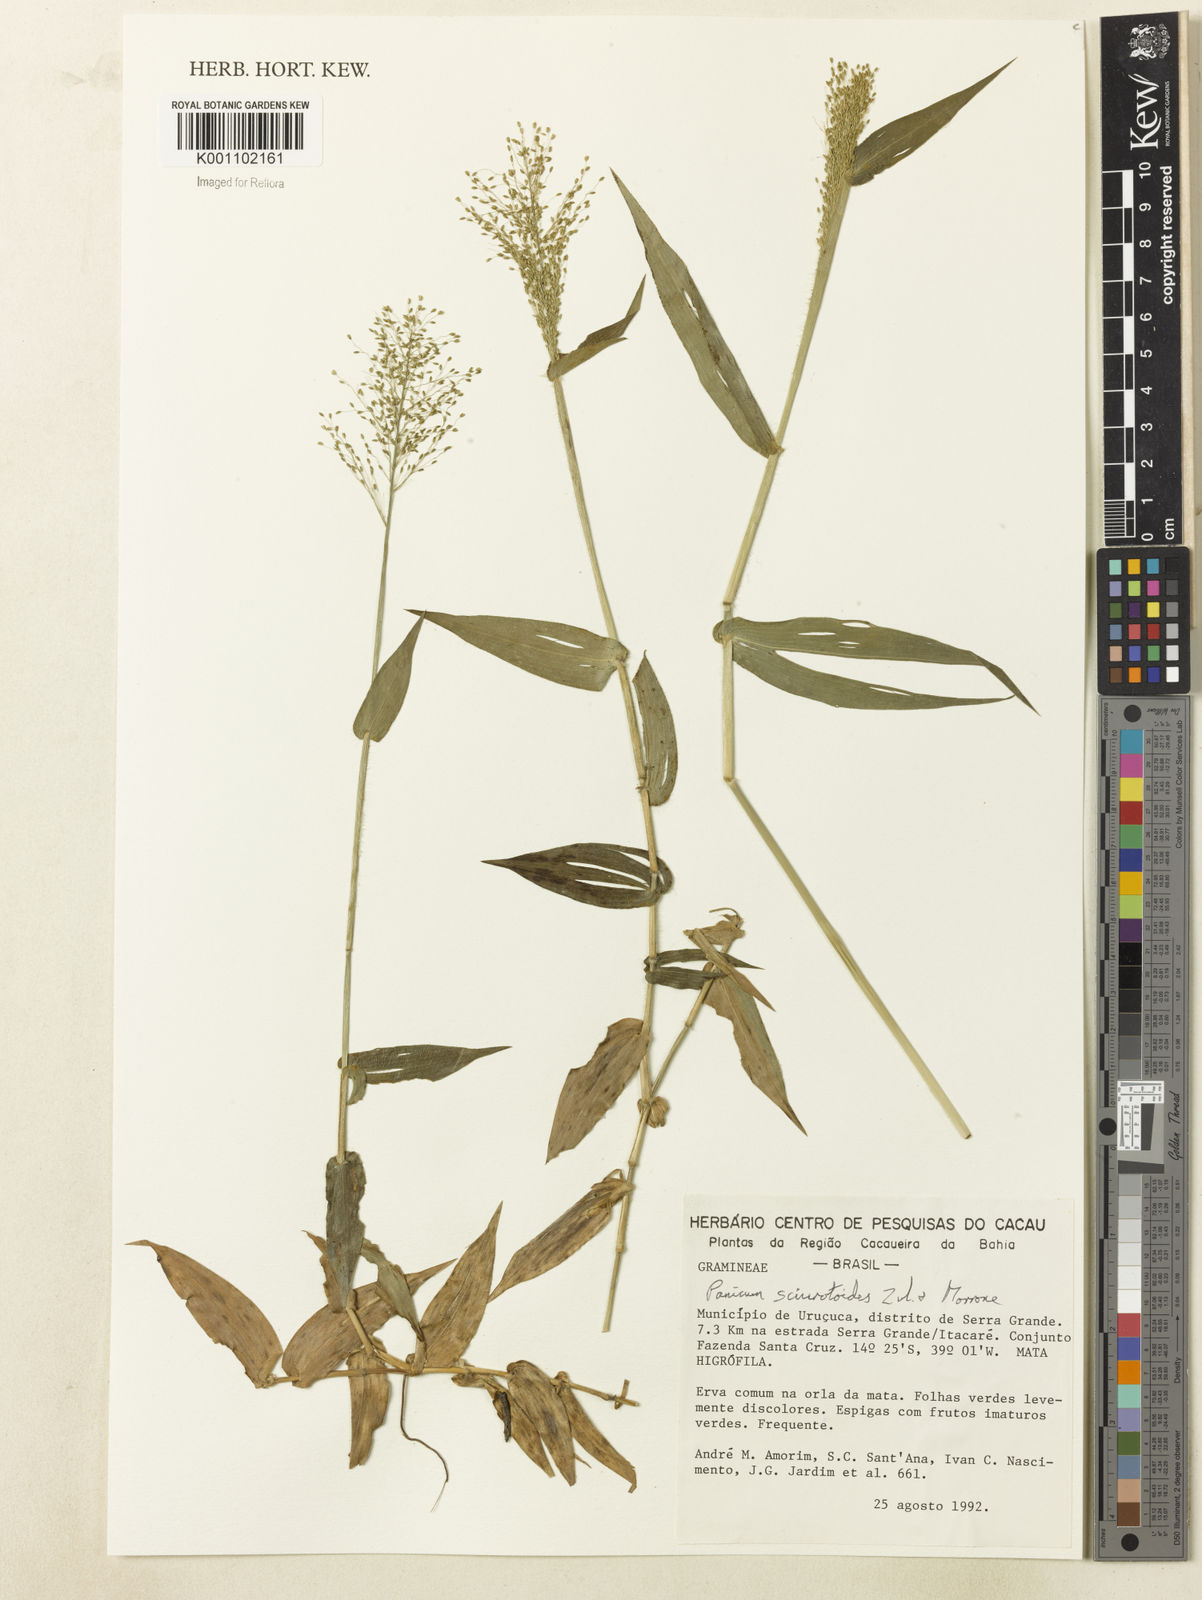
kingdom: Plantae
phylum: Tracheophyta
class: Liliopsida
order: Poales
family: Poaceae
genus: Dichanthelium
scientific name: Dichanthelium sciurotoides
